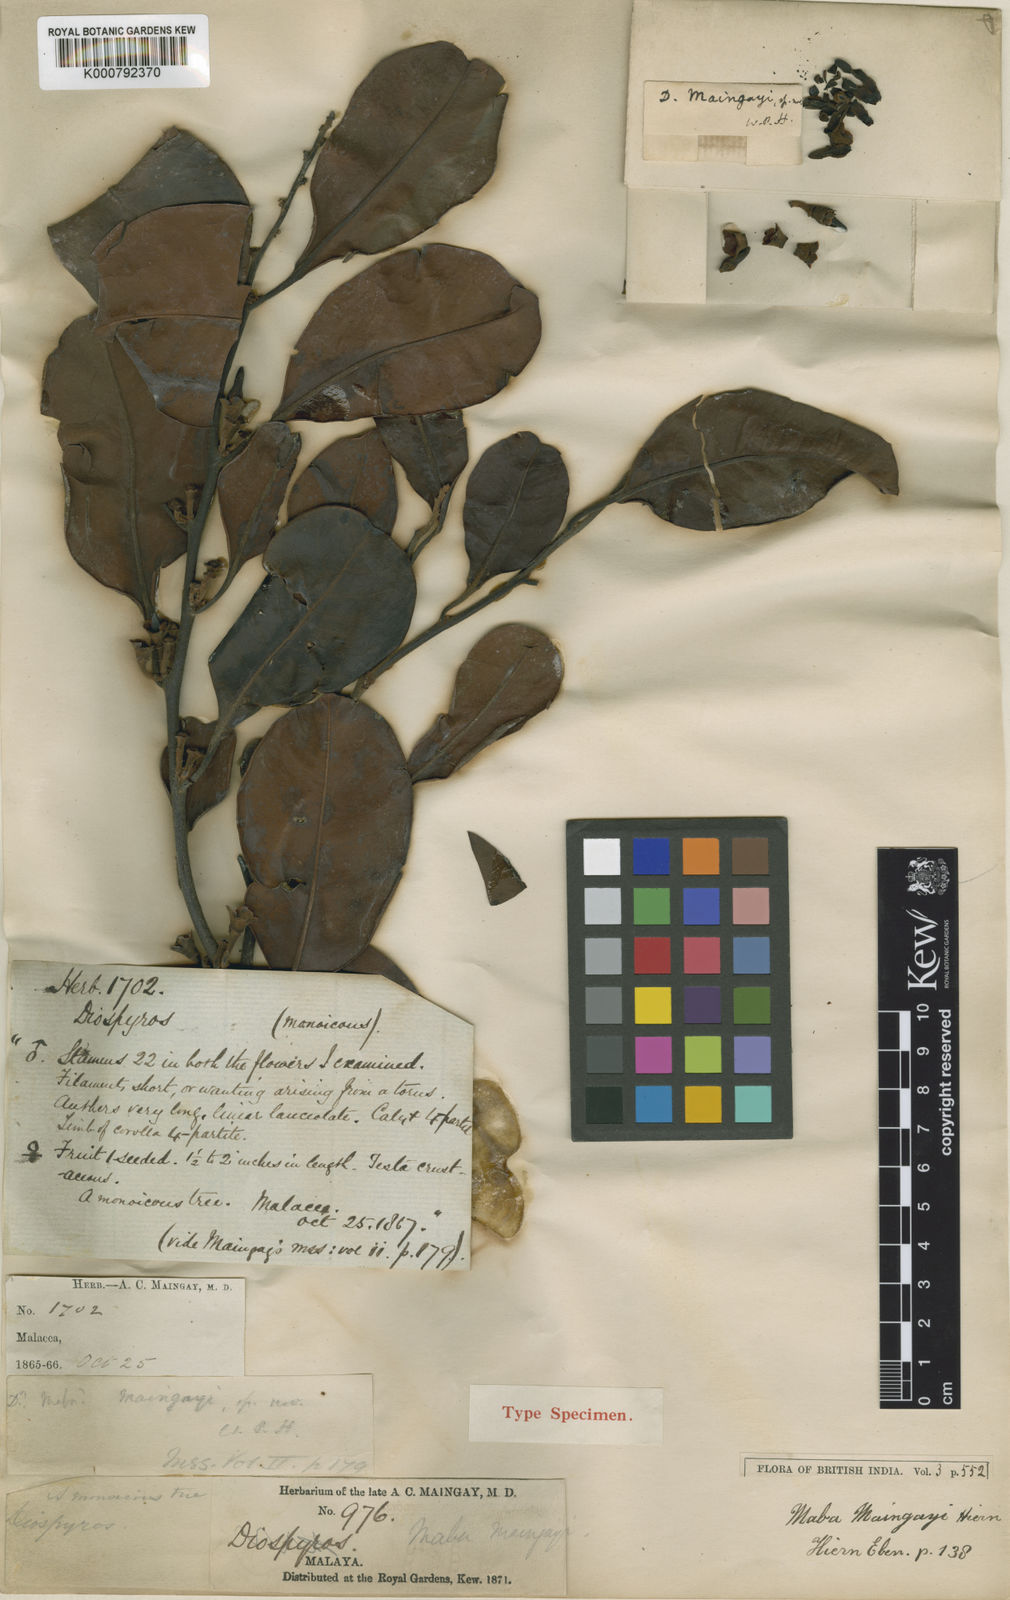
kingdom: Plantae
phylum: Tracheophyta
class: Magnoliopsida
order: Ericales
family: Ebenaceae
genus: Diospyros
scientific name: Diospyros maingayi
